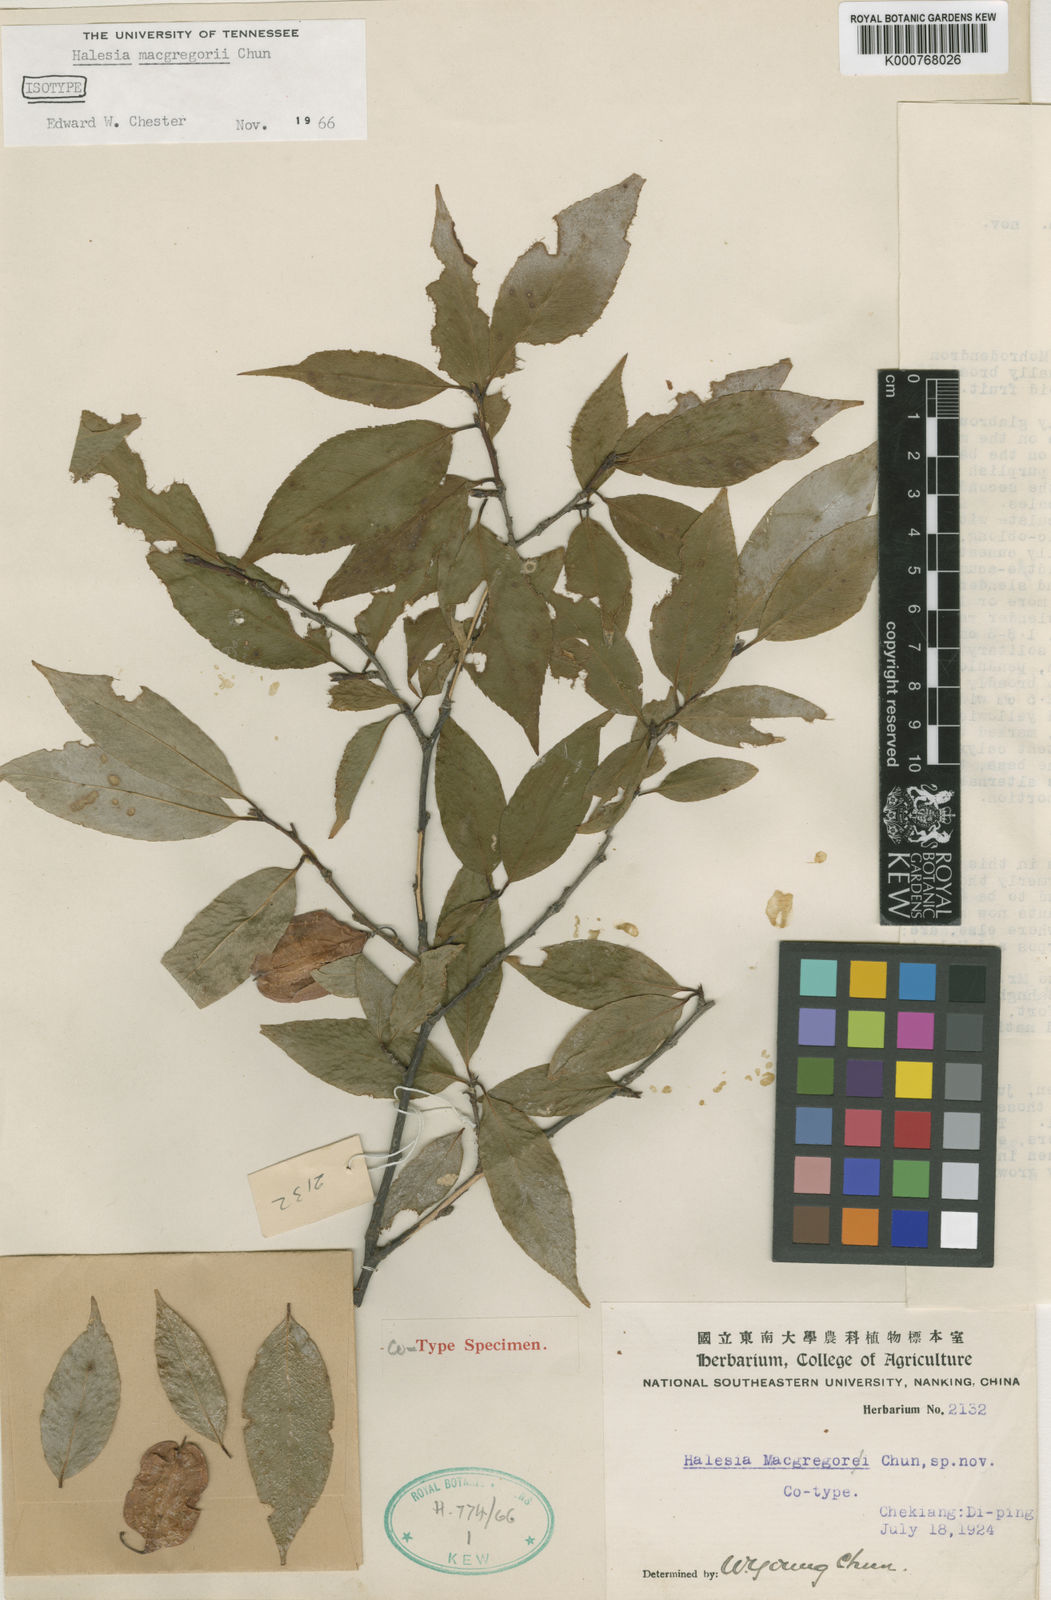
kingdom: Plantae
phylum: Tracheophyta
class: Magnoliopsida
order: Ericales
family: Styracaceae
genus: Perkinsiodendron
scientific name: Perkinsiodendron macgregorii
